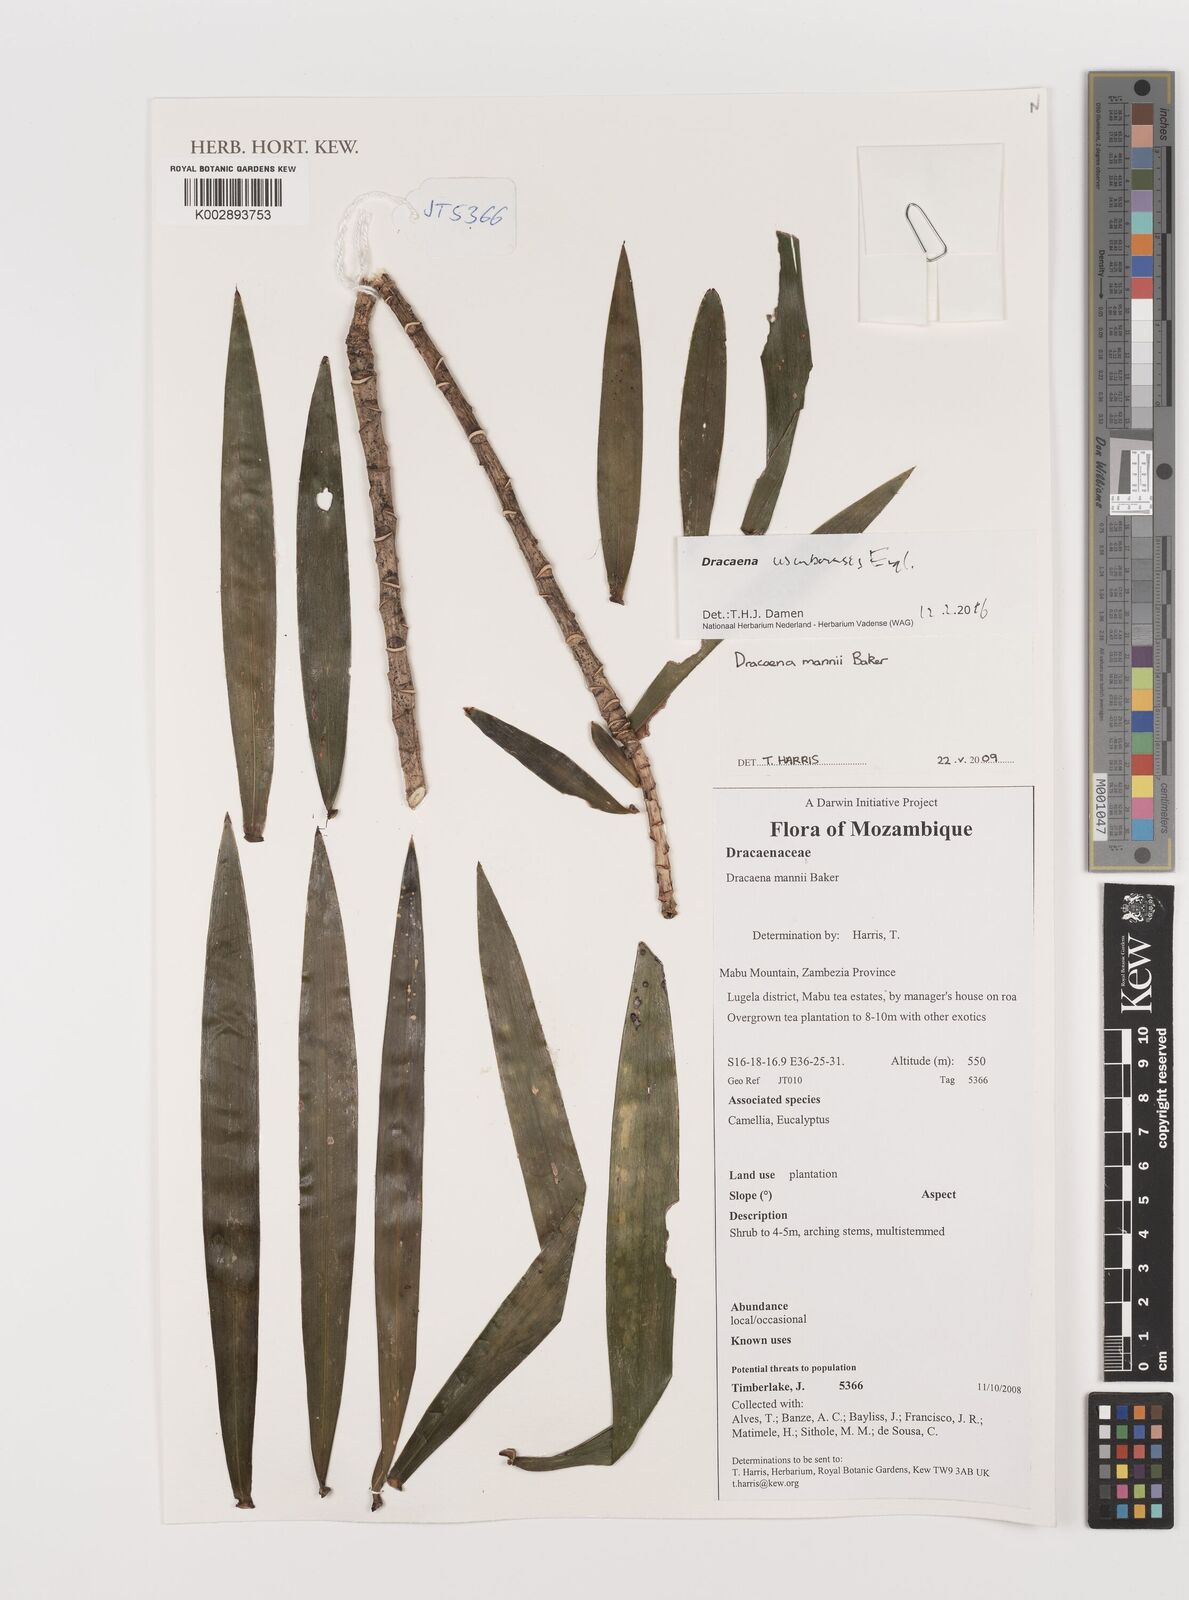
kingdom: Plantae
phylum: Tracheophyta
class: Liliopsida
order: Asparagales
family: Asparagaceae
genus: Dracaena
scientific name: Dracaena usambarensis
